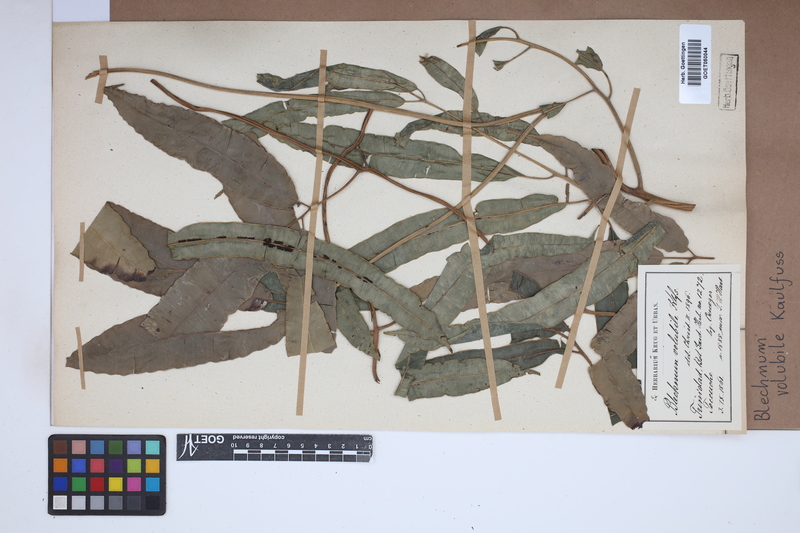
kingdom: Plantae
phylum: Tracheophyta
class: Polypodiopsida
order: Polypodiales
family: Blechnaceae
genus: Salpichlaena
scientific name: Salpichlaena volubilis
